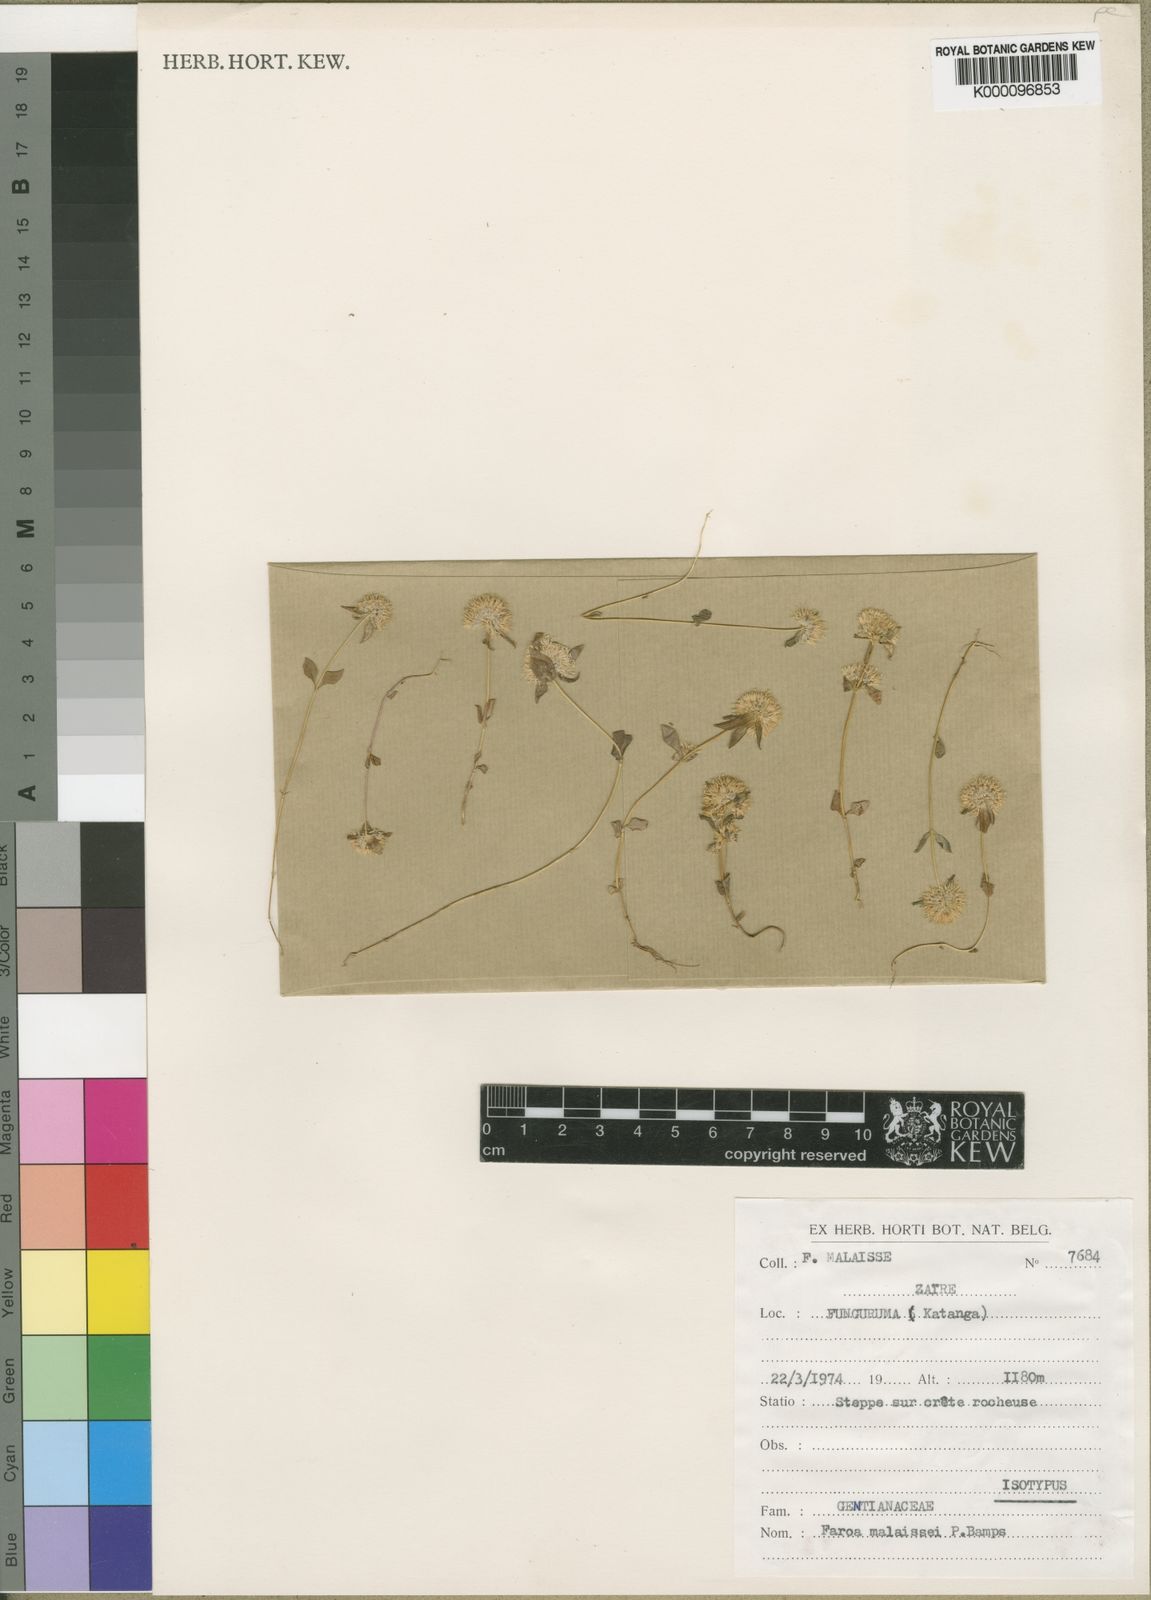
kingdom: Plantae
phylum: Tracheophyta
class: Magnoliopsida
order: Gentianales
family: Gentianaceae
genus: Faroa
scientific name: Faroa malaissei
